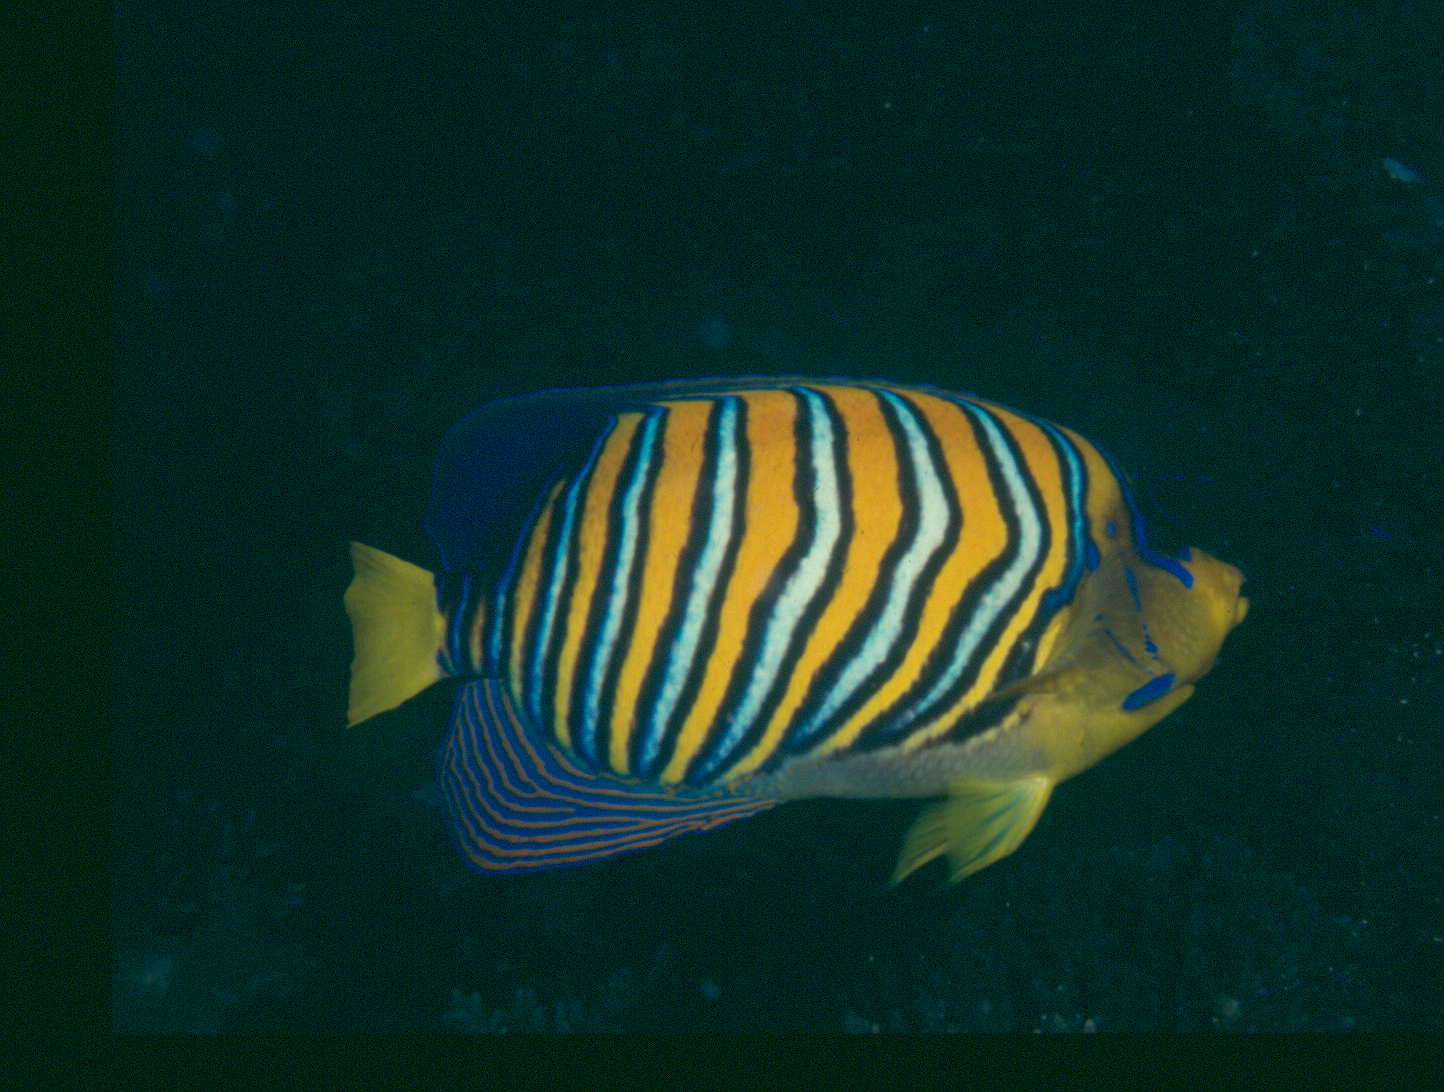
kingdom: Animalia
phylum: Chordata
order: Perciformes
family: Pomacanthidae
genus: Pygoplites
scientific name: Pygoplites diacanthus
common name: Regal angelfish
